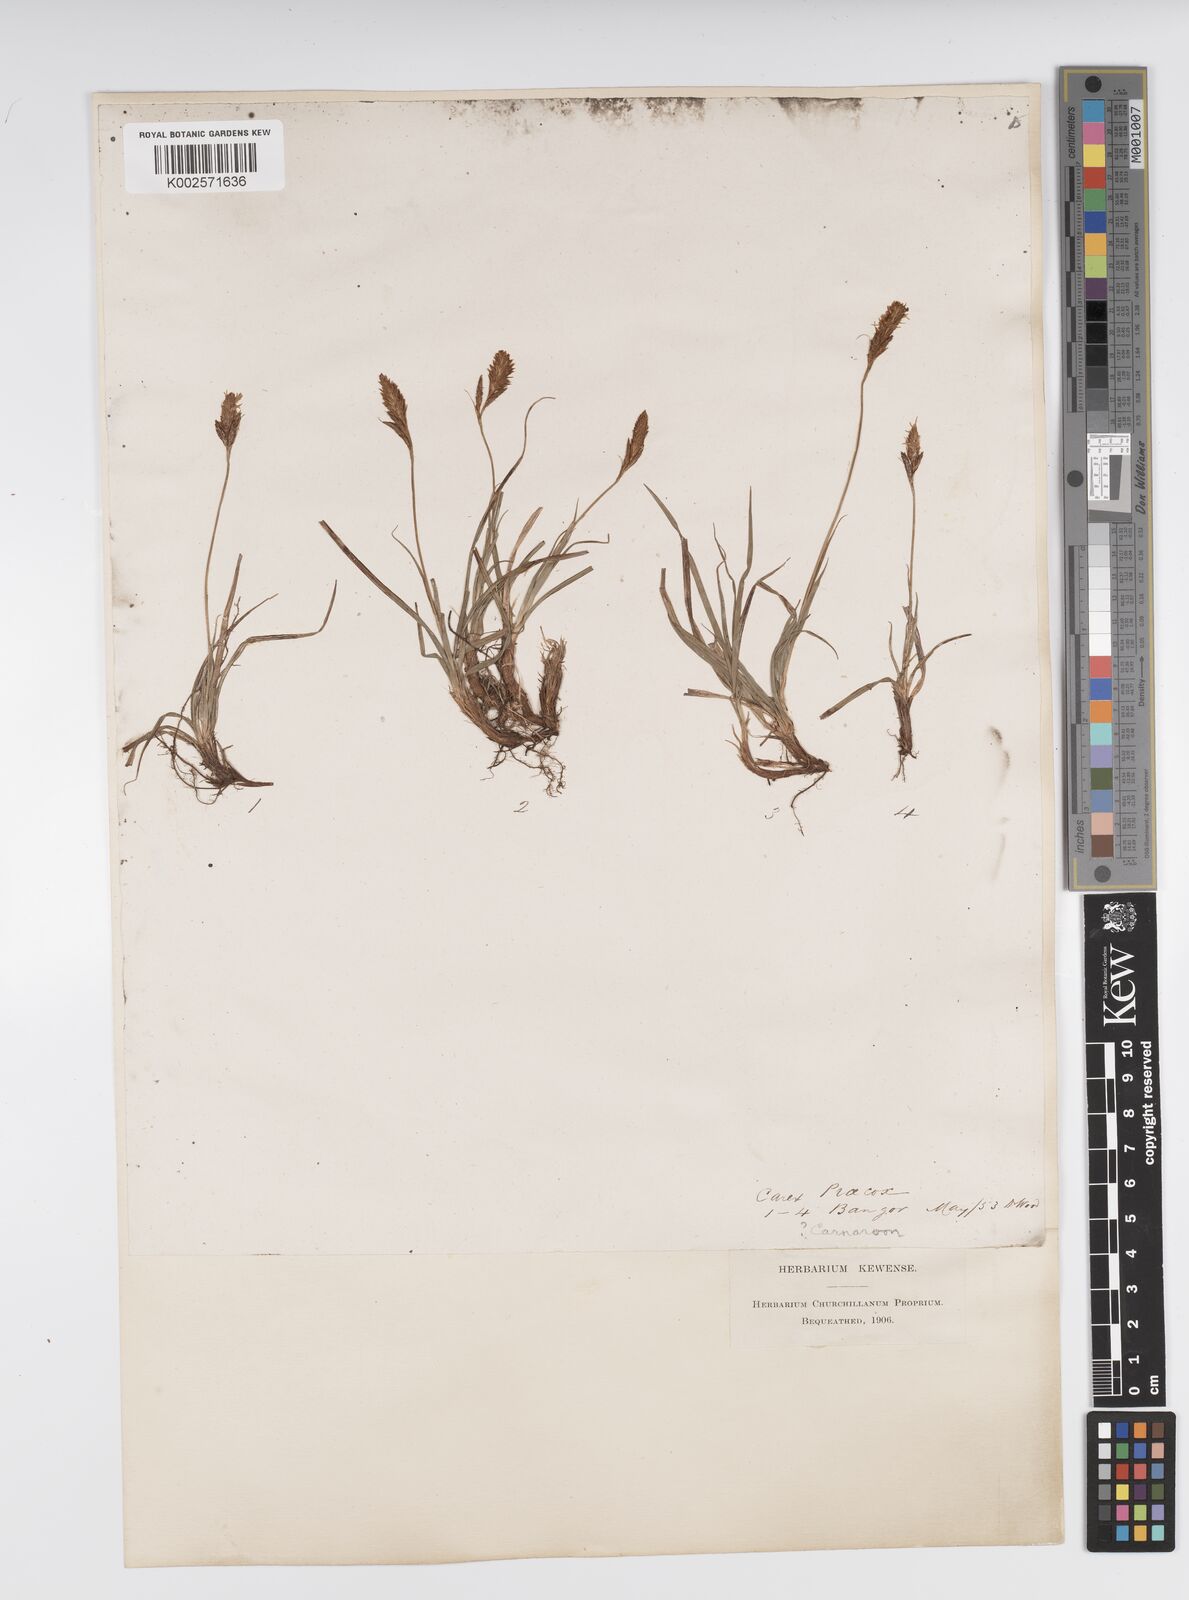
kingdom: Plantae
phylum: Tracheophyta
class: Liliopsida
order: Poales
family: Cyperaceae
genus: Carex
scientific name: Carex caryophyllea
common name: Spring sedge
